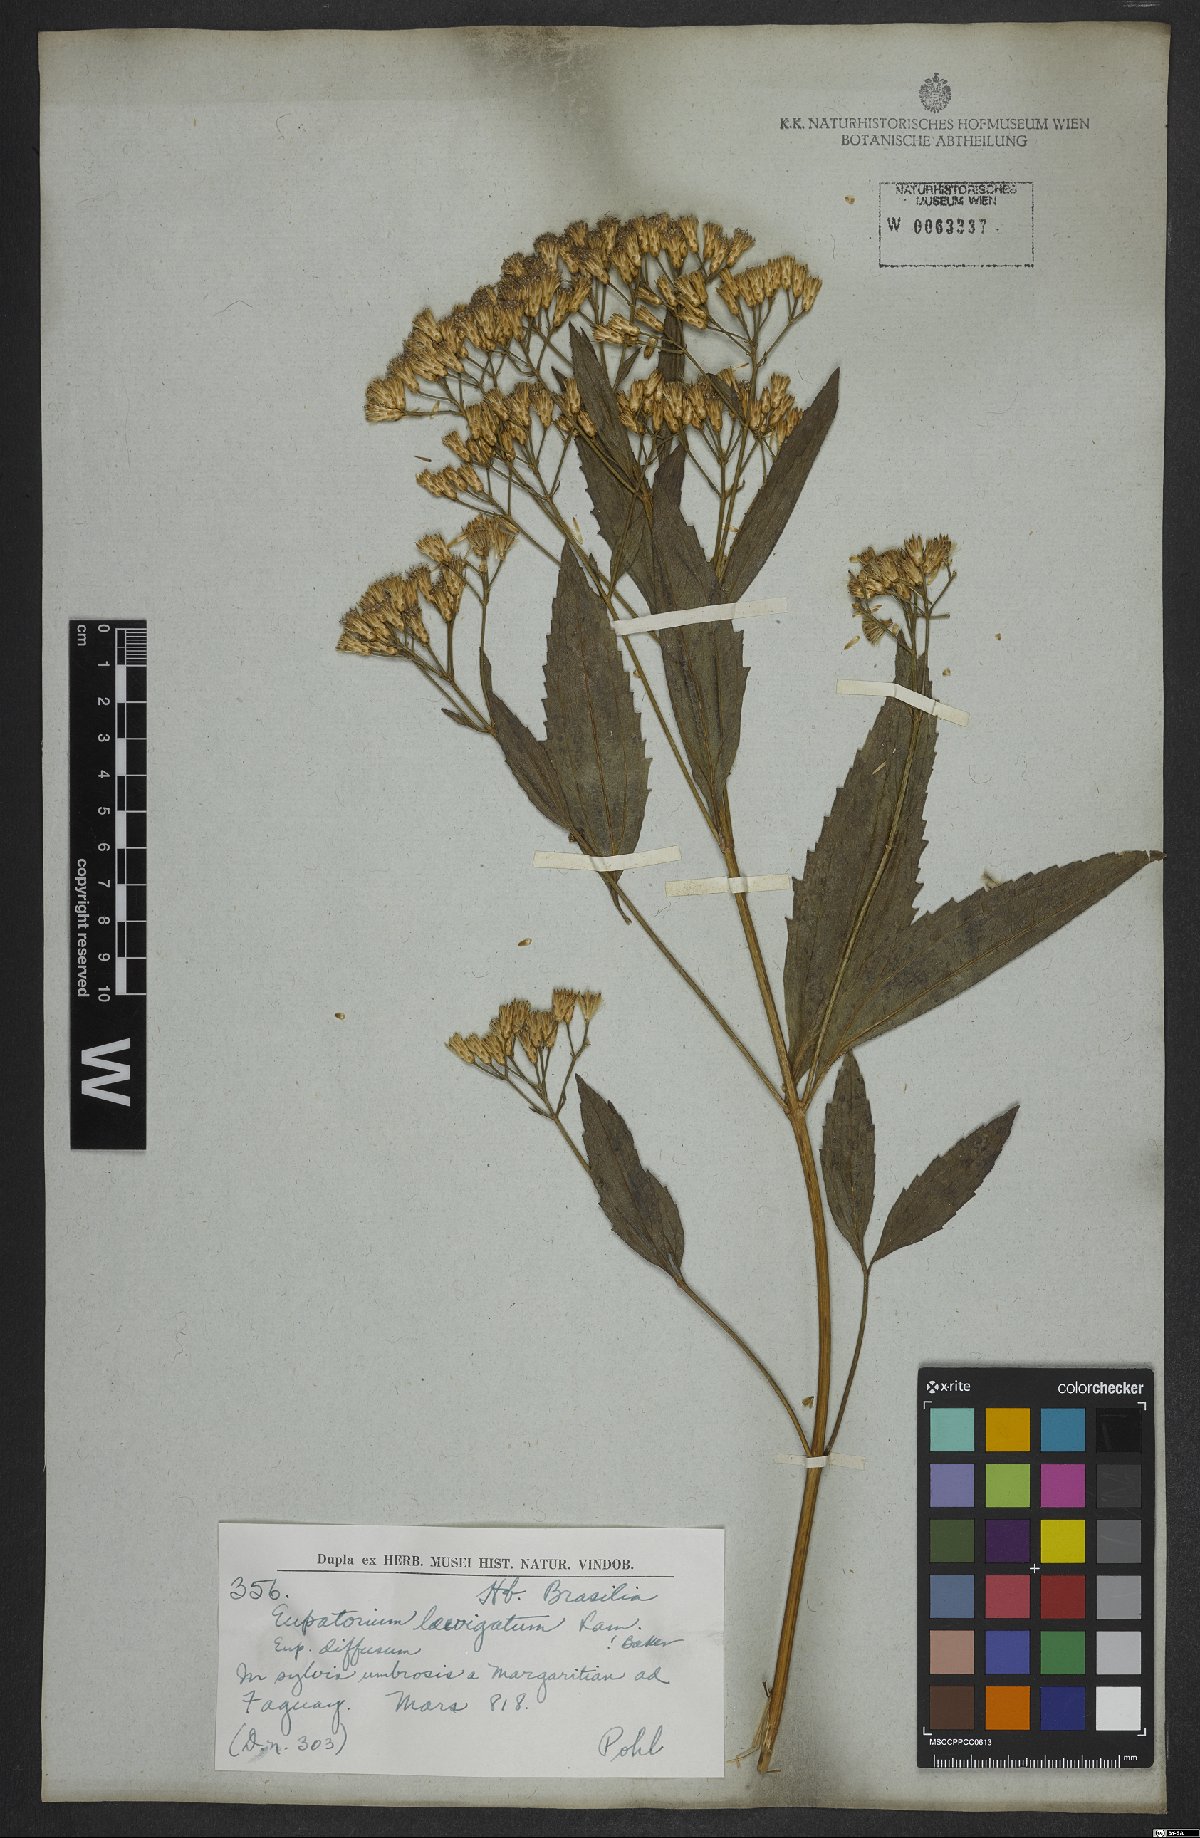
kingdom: Plantae
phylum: Tracheophyta
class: Magnoliopsida
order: Asterales
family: Asteraceae
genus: Eupatorium
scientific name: Eupatorium laevigatum
